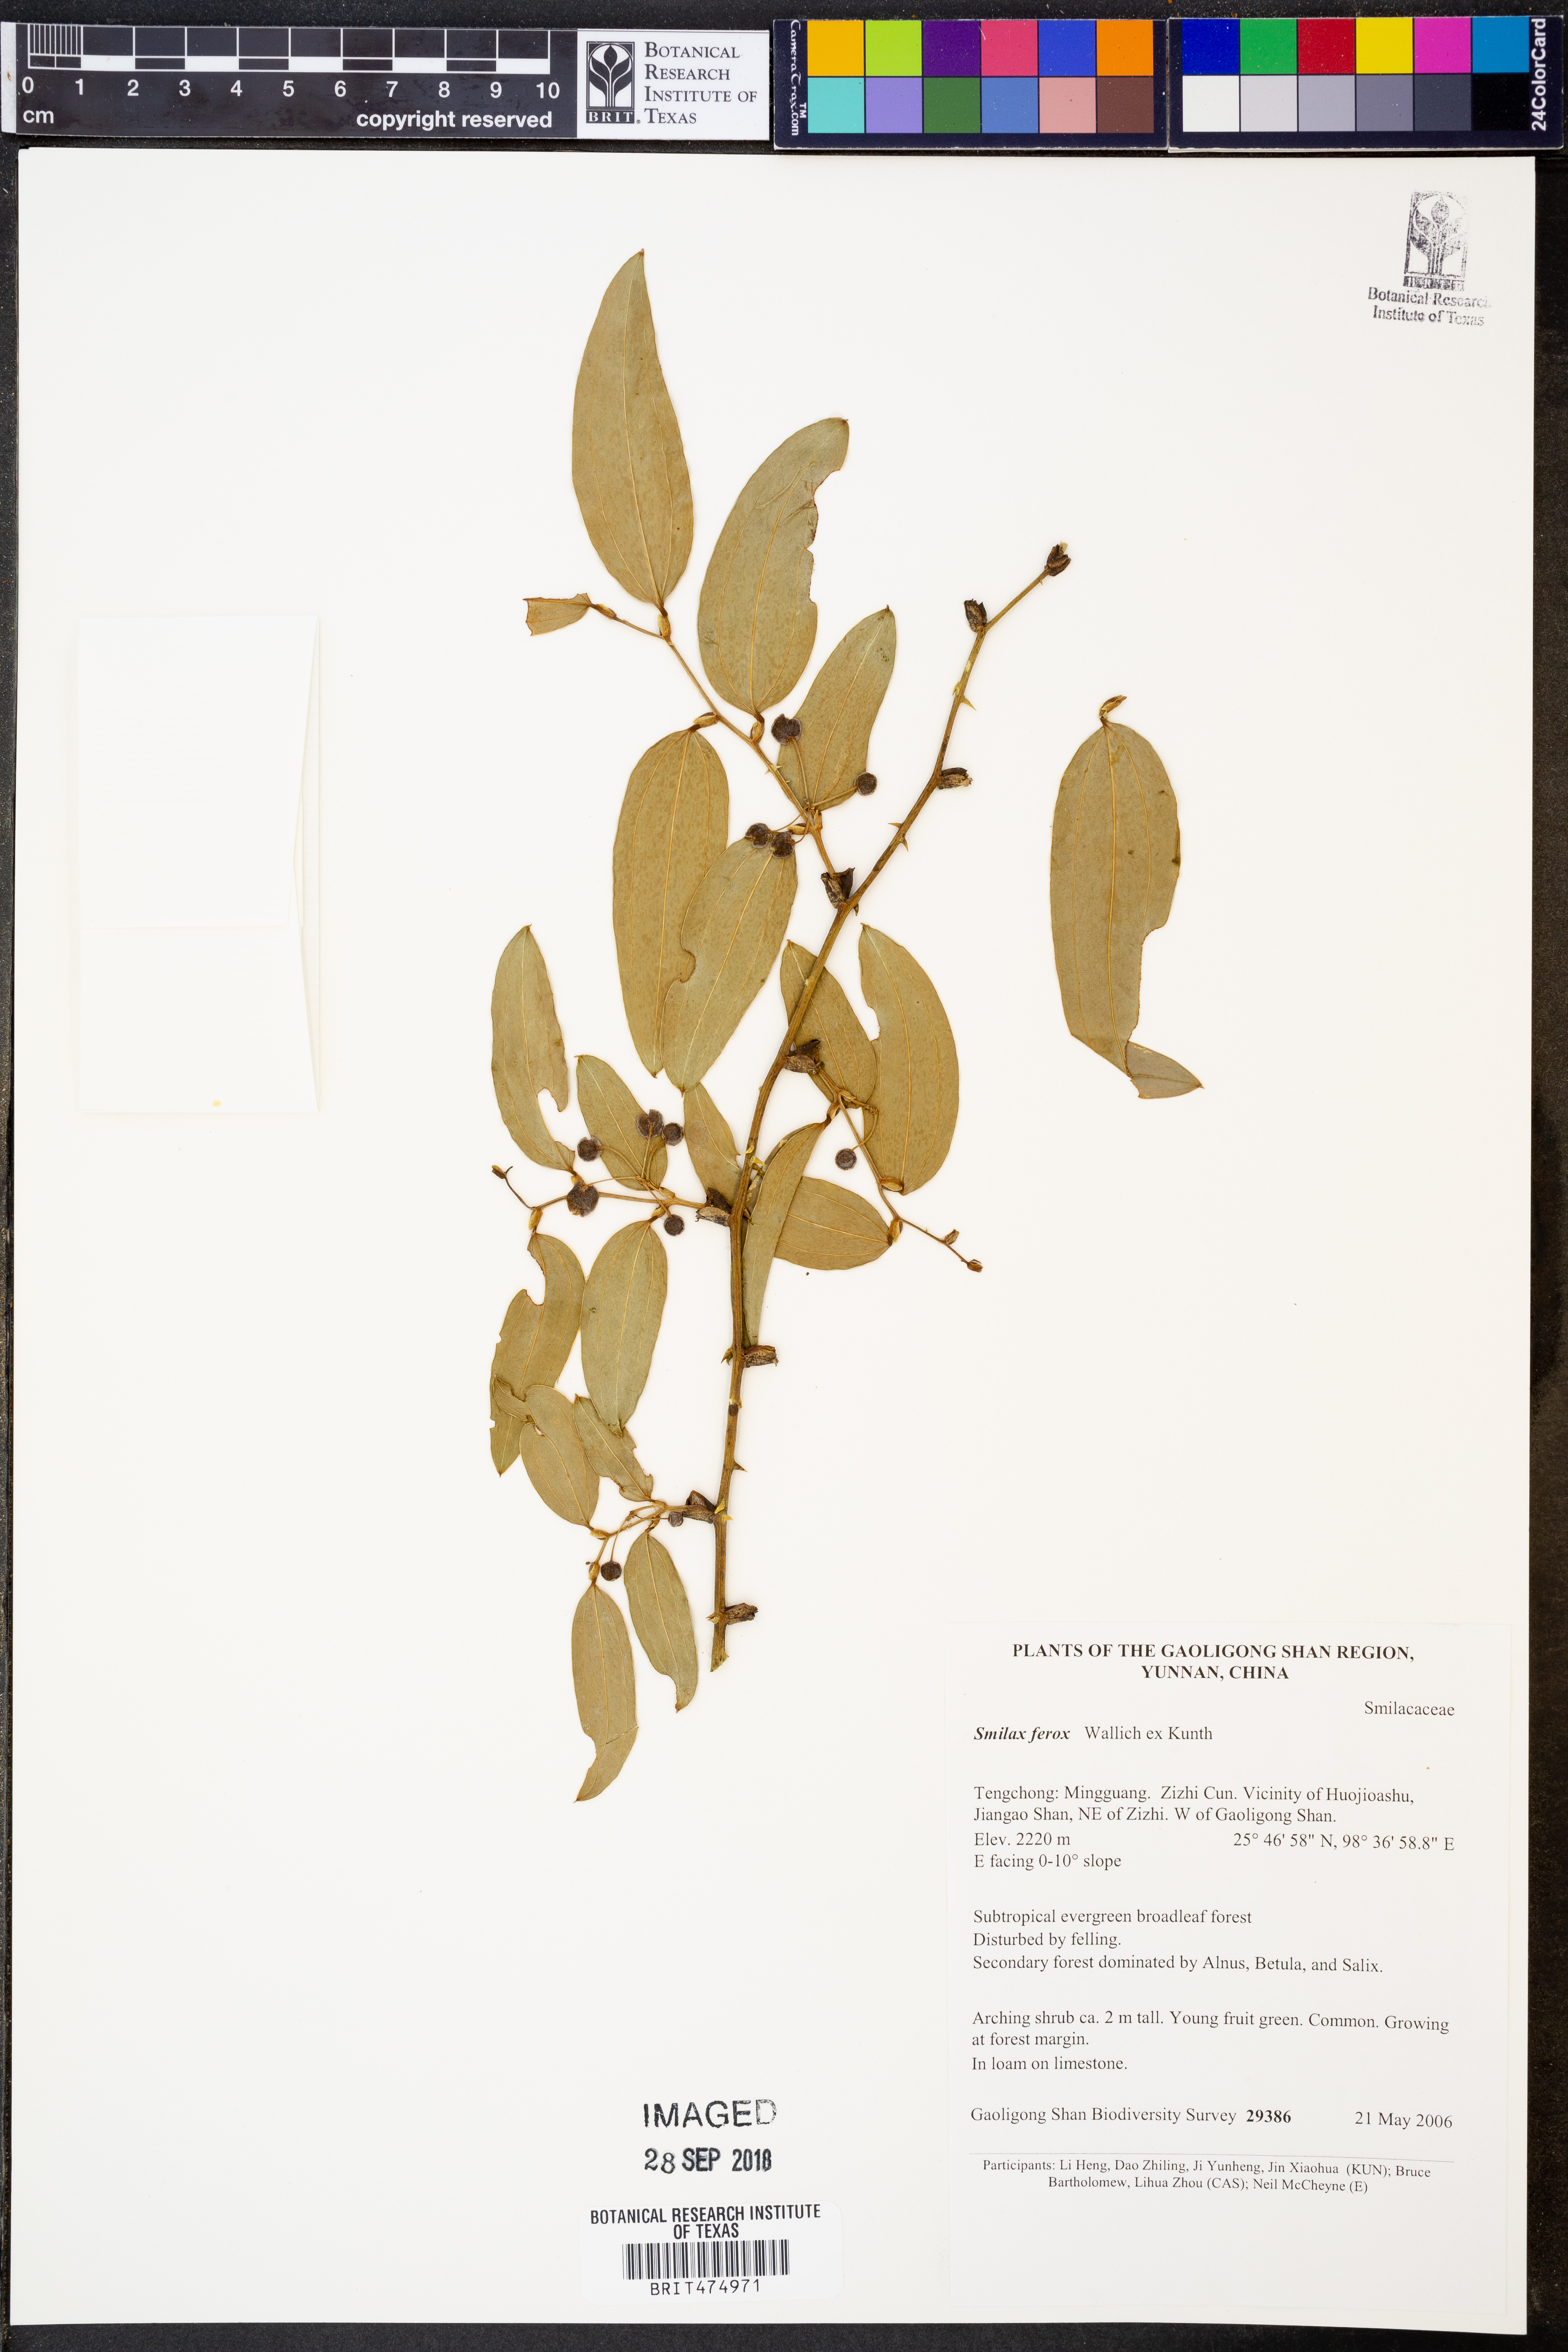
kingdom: Plantae
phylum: Tracheophyta
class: Liliopsida
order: Liliales
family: Smilacaceae
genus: Smilax
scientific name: Smilax ferox
